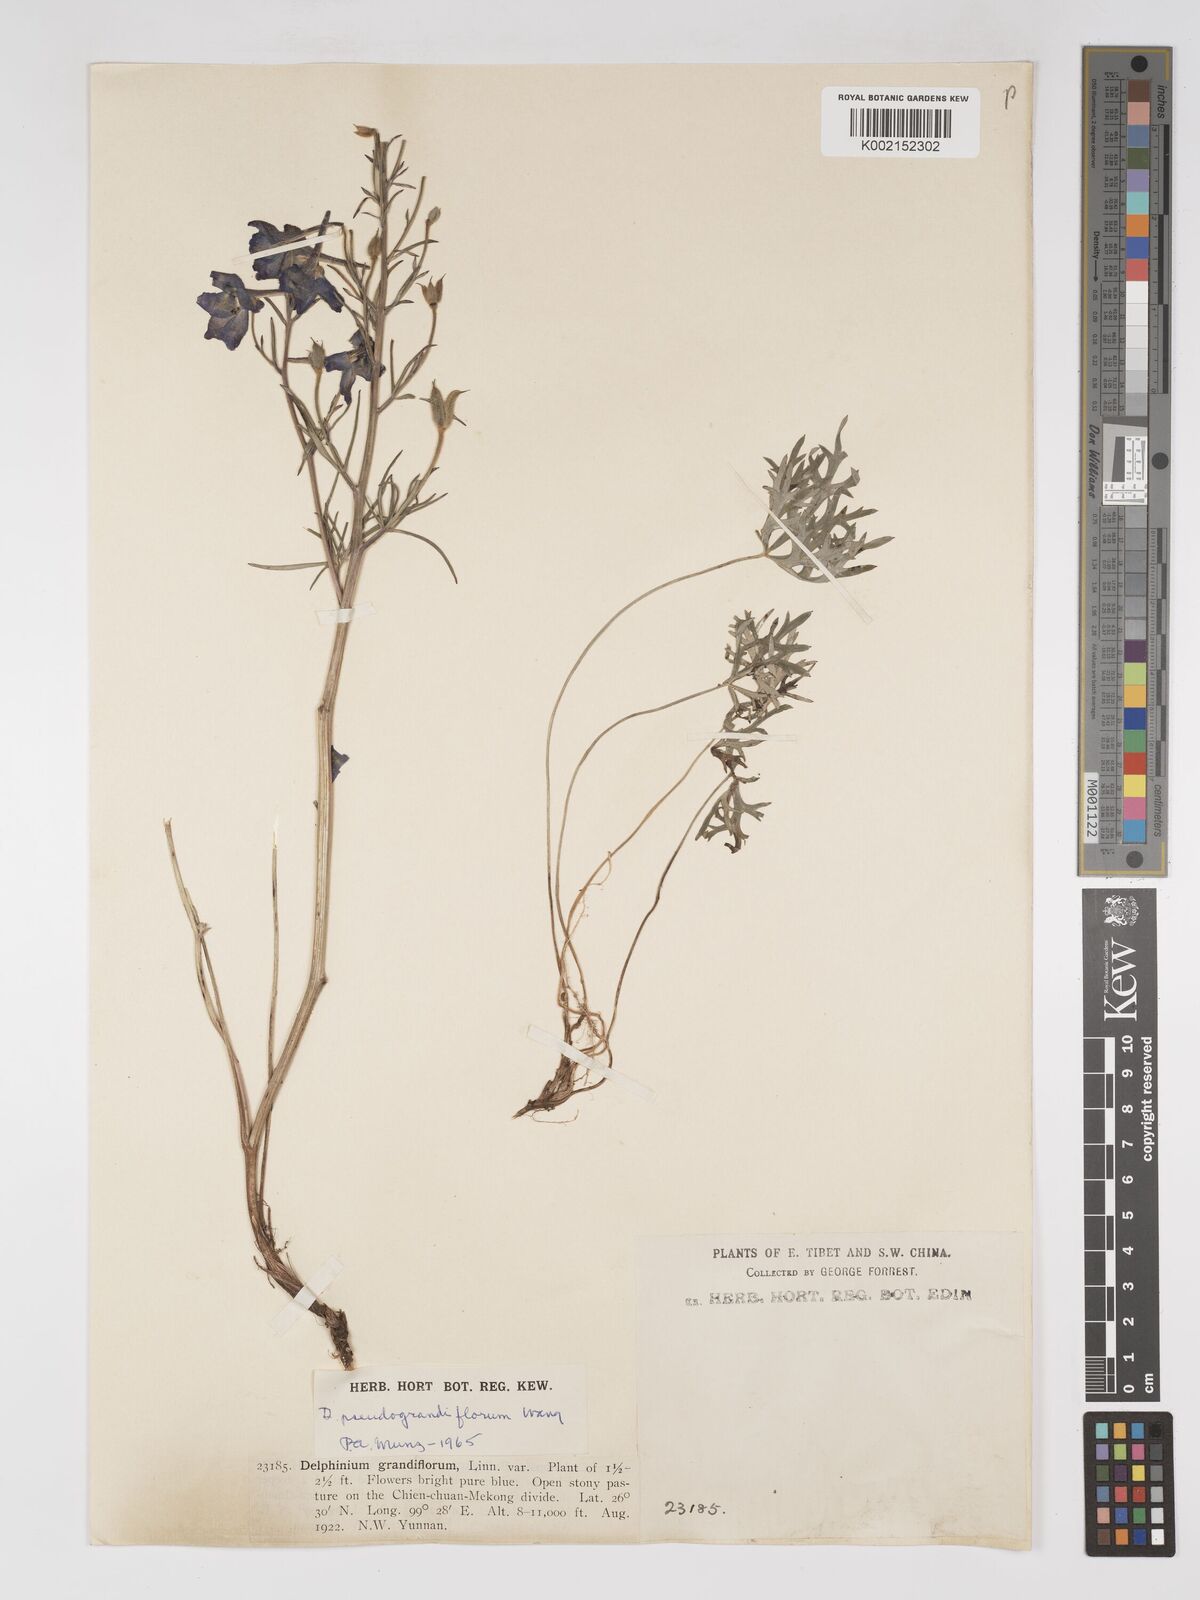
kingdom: Plantae
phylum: Tracheophyta
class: Magnoliopsida
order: Ranunculales
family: Ranunculaceae
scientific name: Ranunculaceae
